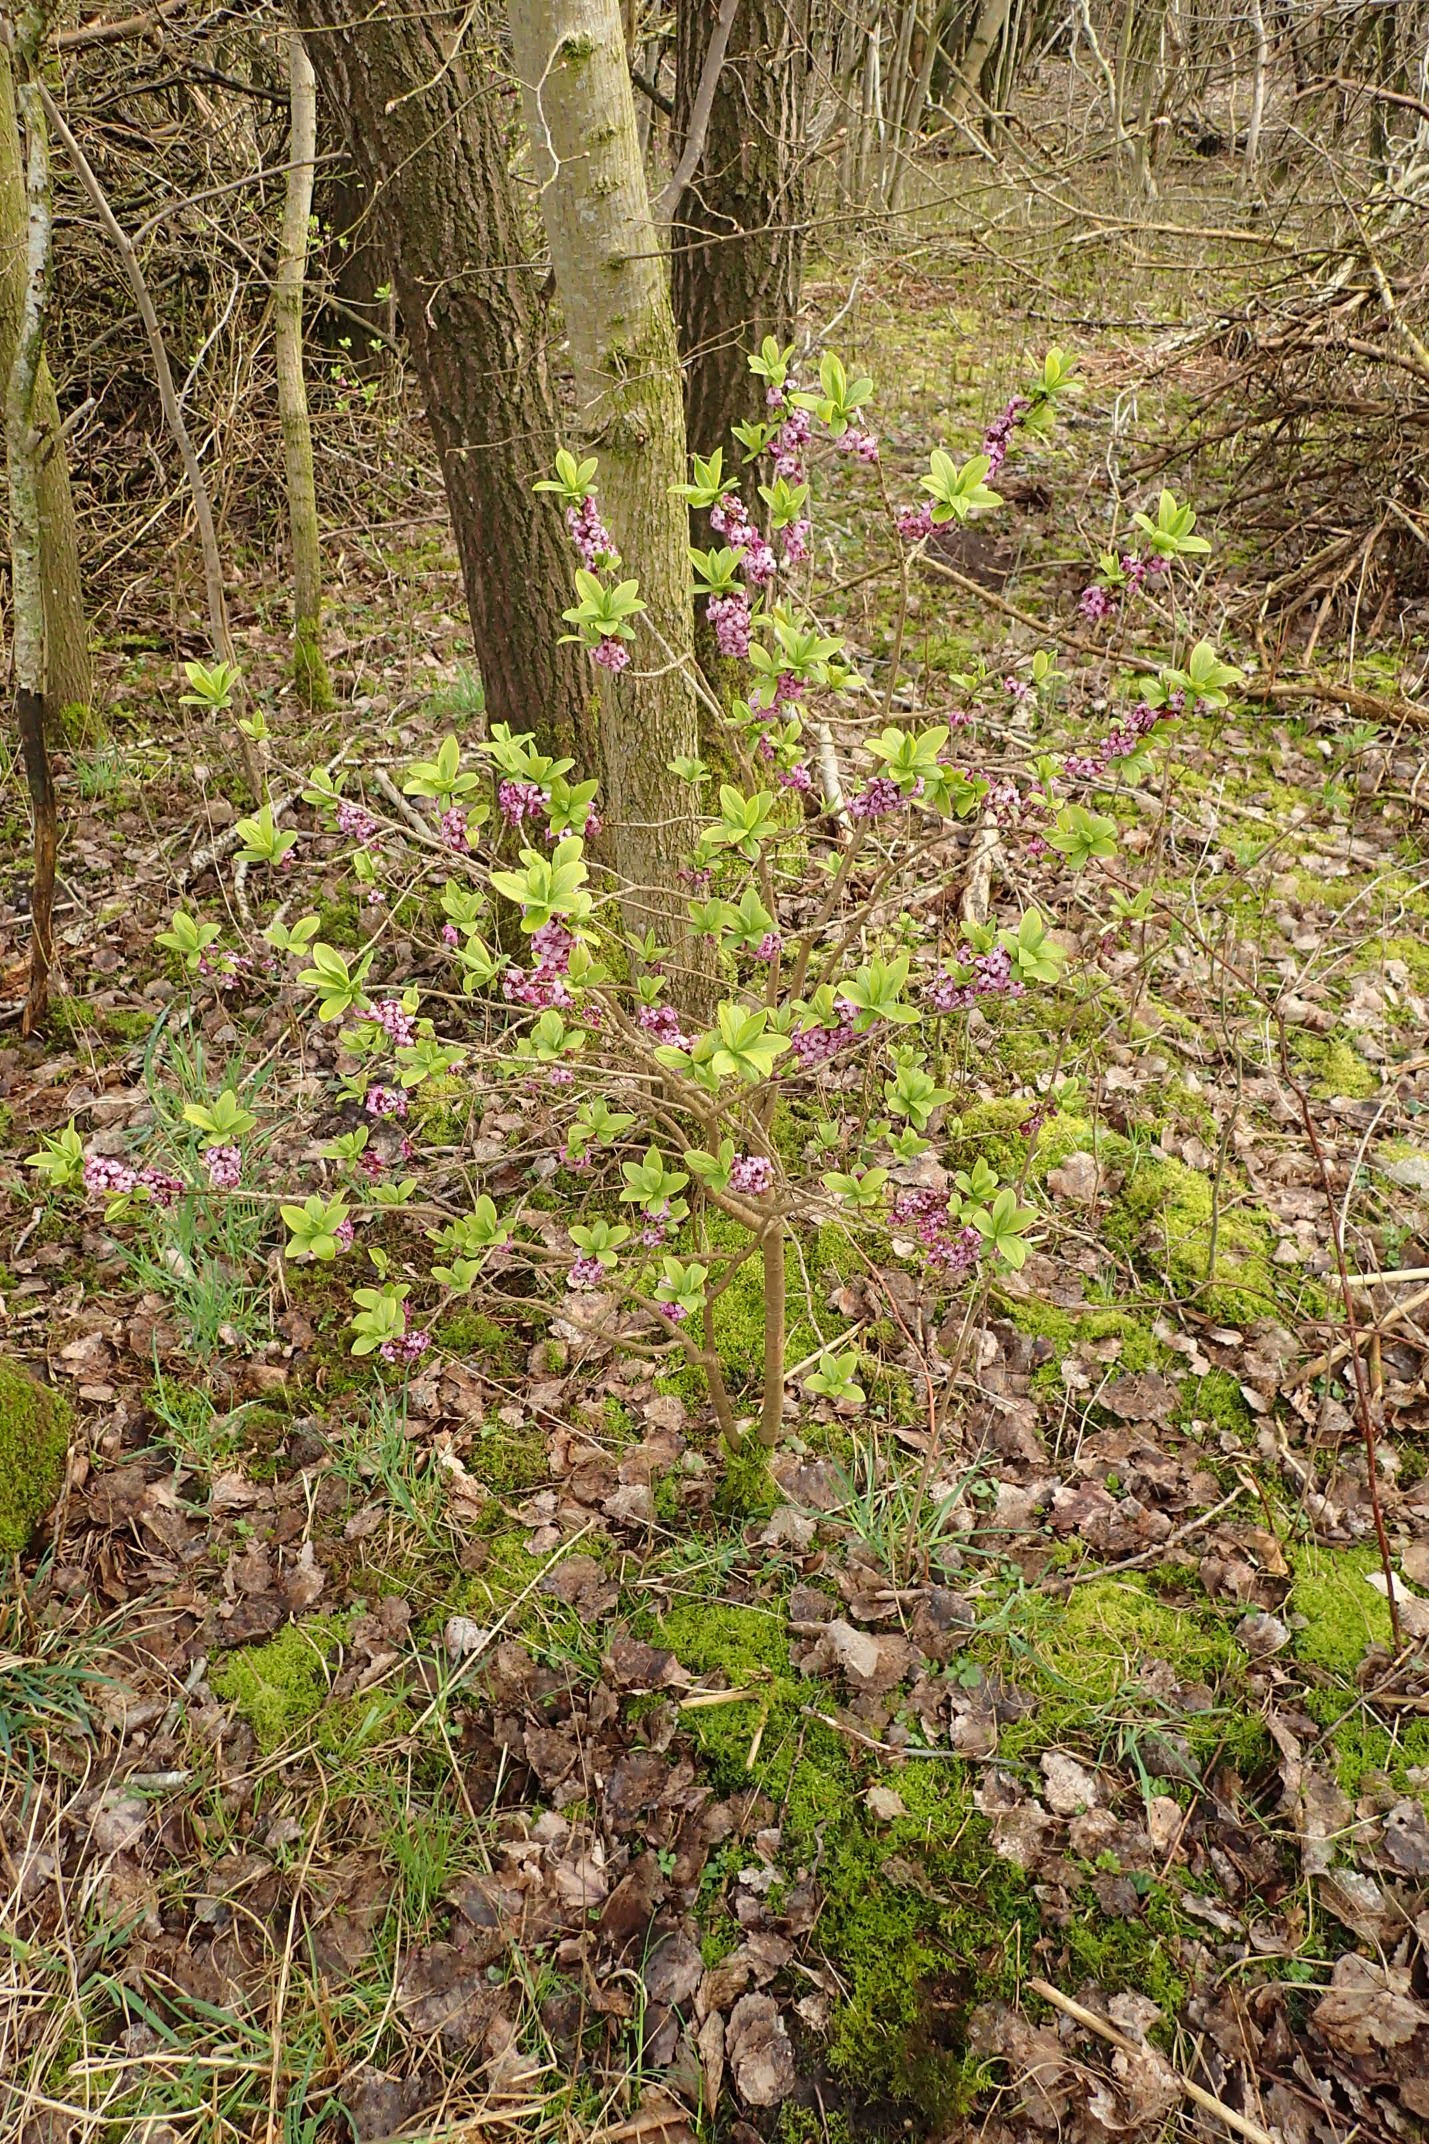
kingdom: Plantae
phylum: Tracheophyta
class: Magnoliopsida
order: Malvales
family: Thymelaeaceae
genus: Daphne
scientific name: Daphne mezereum
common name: Pebertræ
